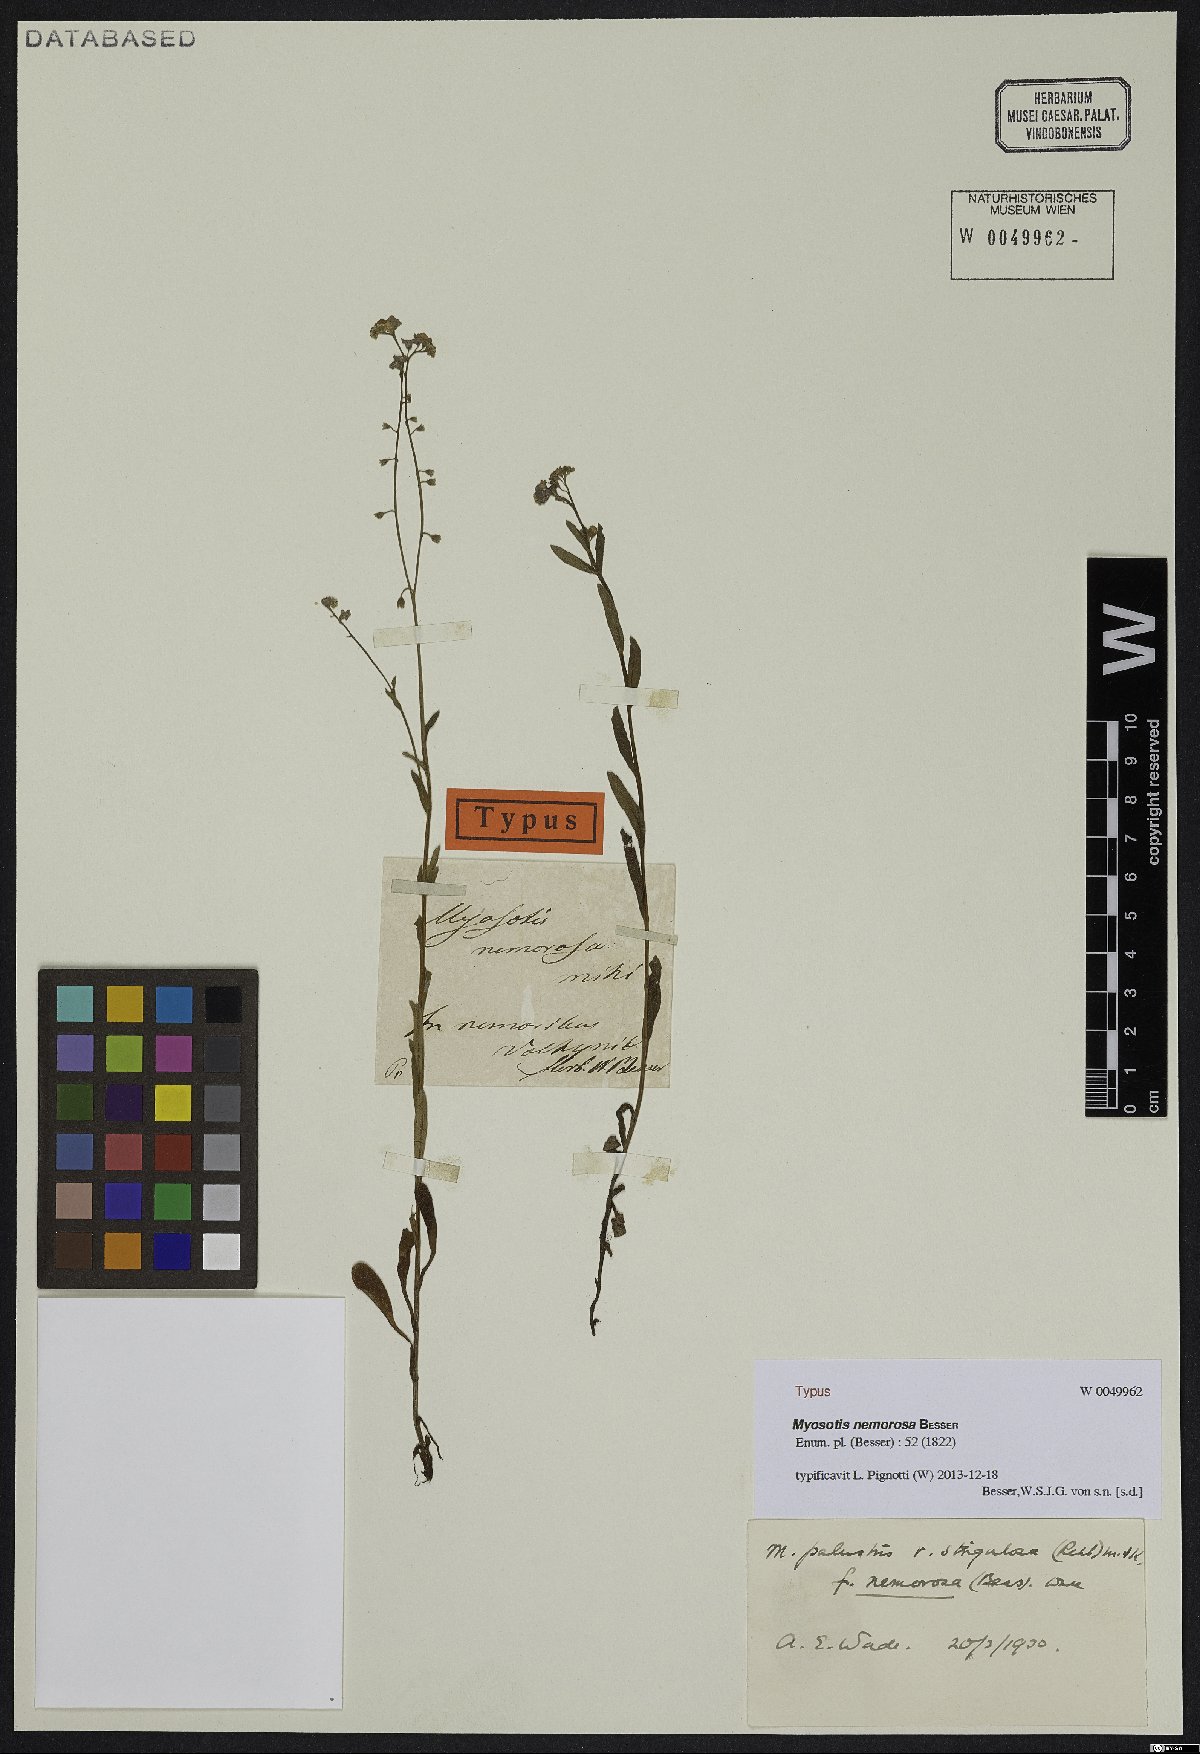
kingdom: Plantae
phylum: Tracheophyta
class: Magnoliopsida
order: Boraginales
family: Boraginaceae
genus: Myosotis
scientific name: Myosotis nemorosa
